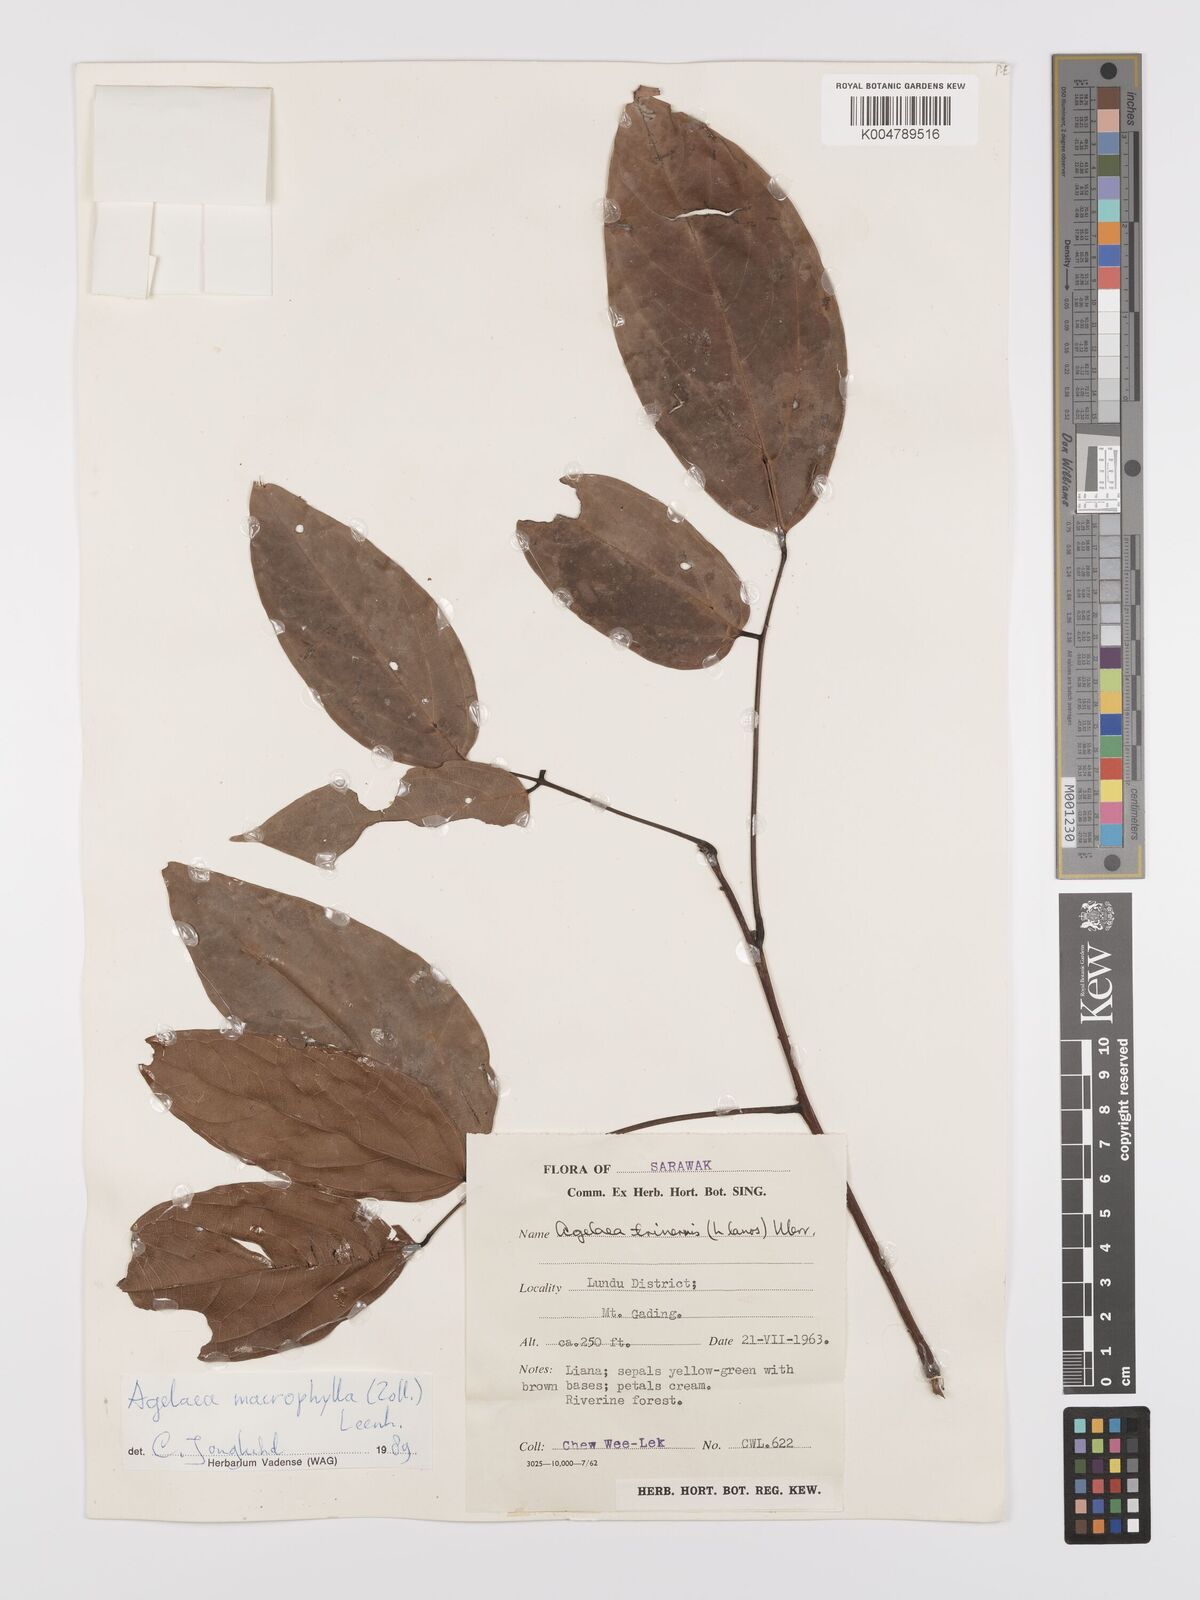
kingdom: Plantae
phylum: Tracheophyta
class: Magnoliopsida
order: Oxalidales
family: Connaraceae
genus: Agelaea
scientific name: Agelaea trinervis
